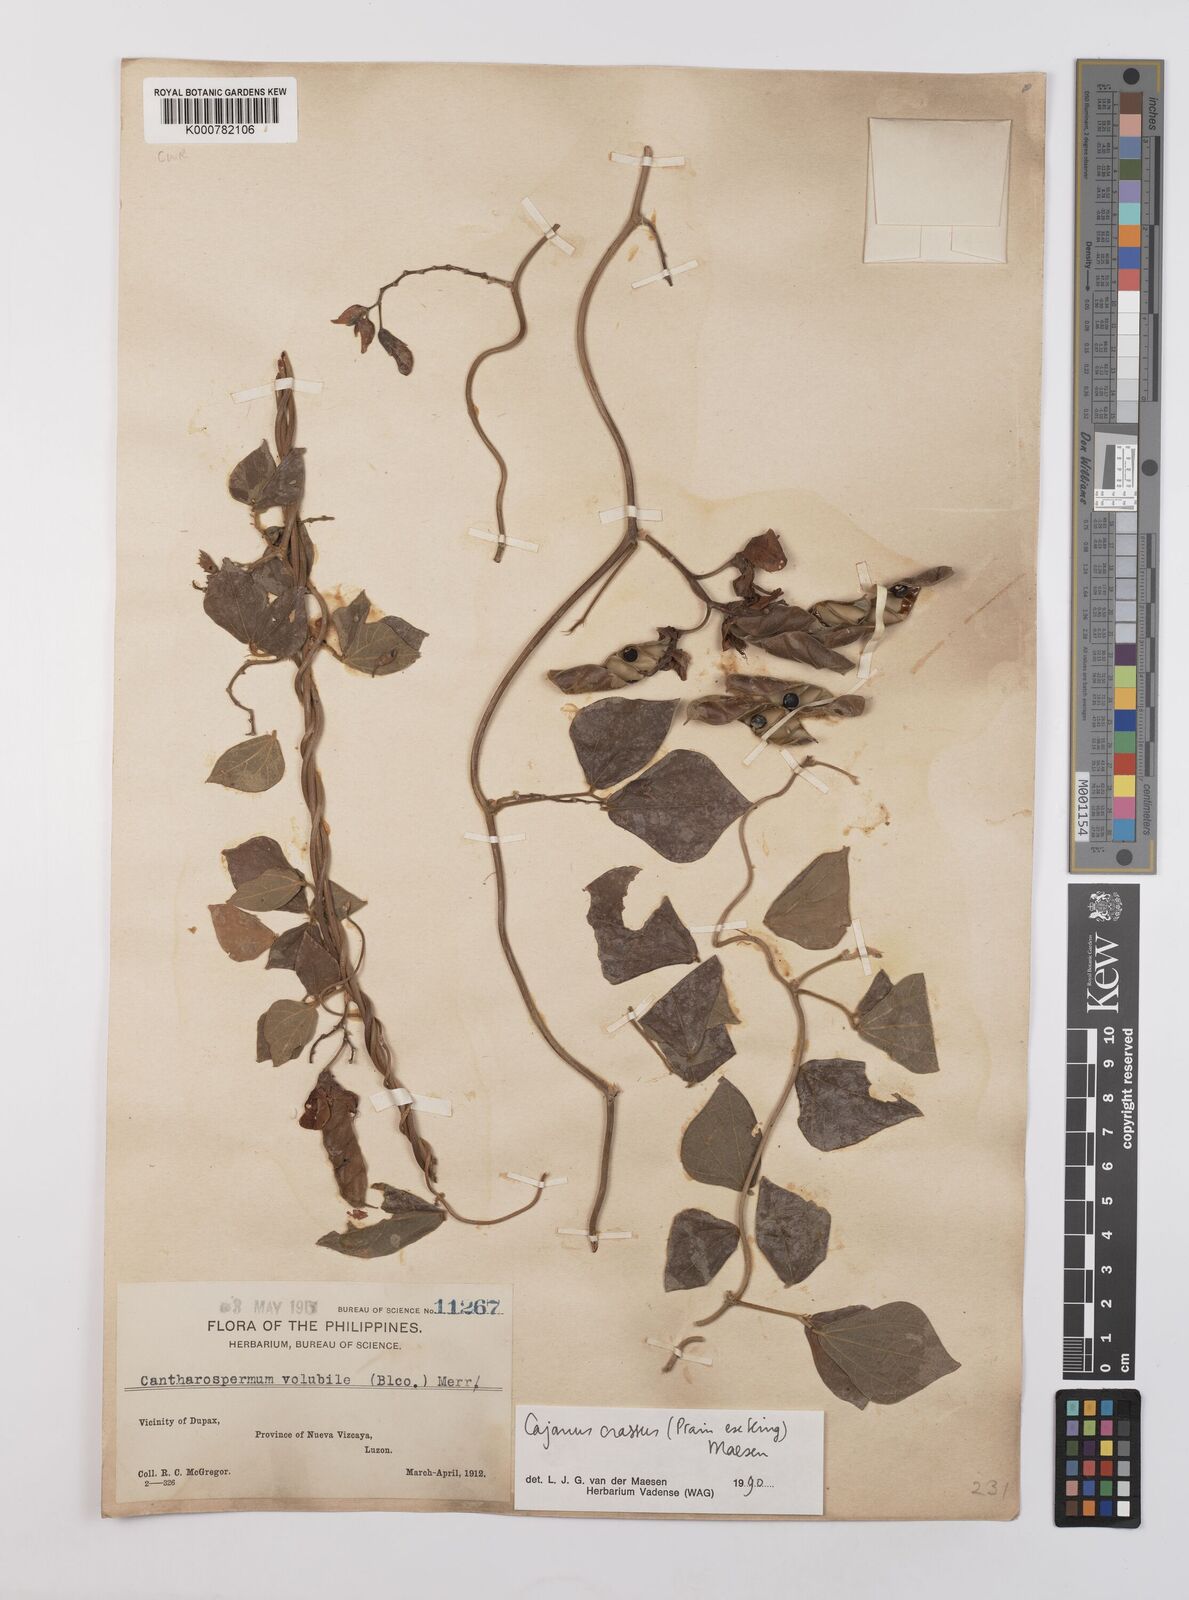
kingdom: Plantae
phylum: Tracheophyta
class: Magnoliopsida
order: Fabales
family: Fabaceae
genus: Cajanus
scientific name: Cajanus crassus
